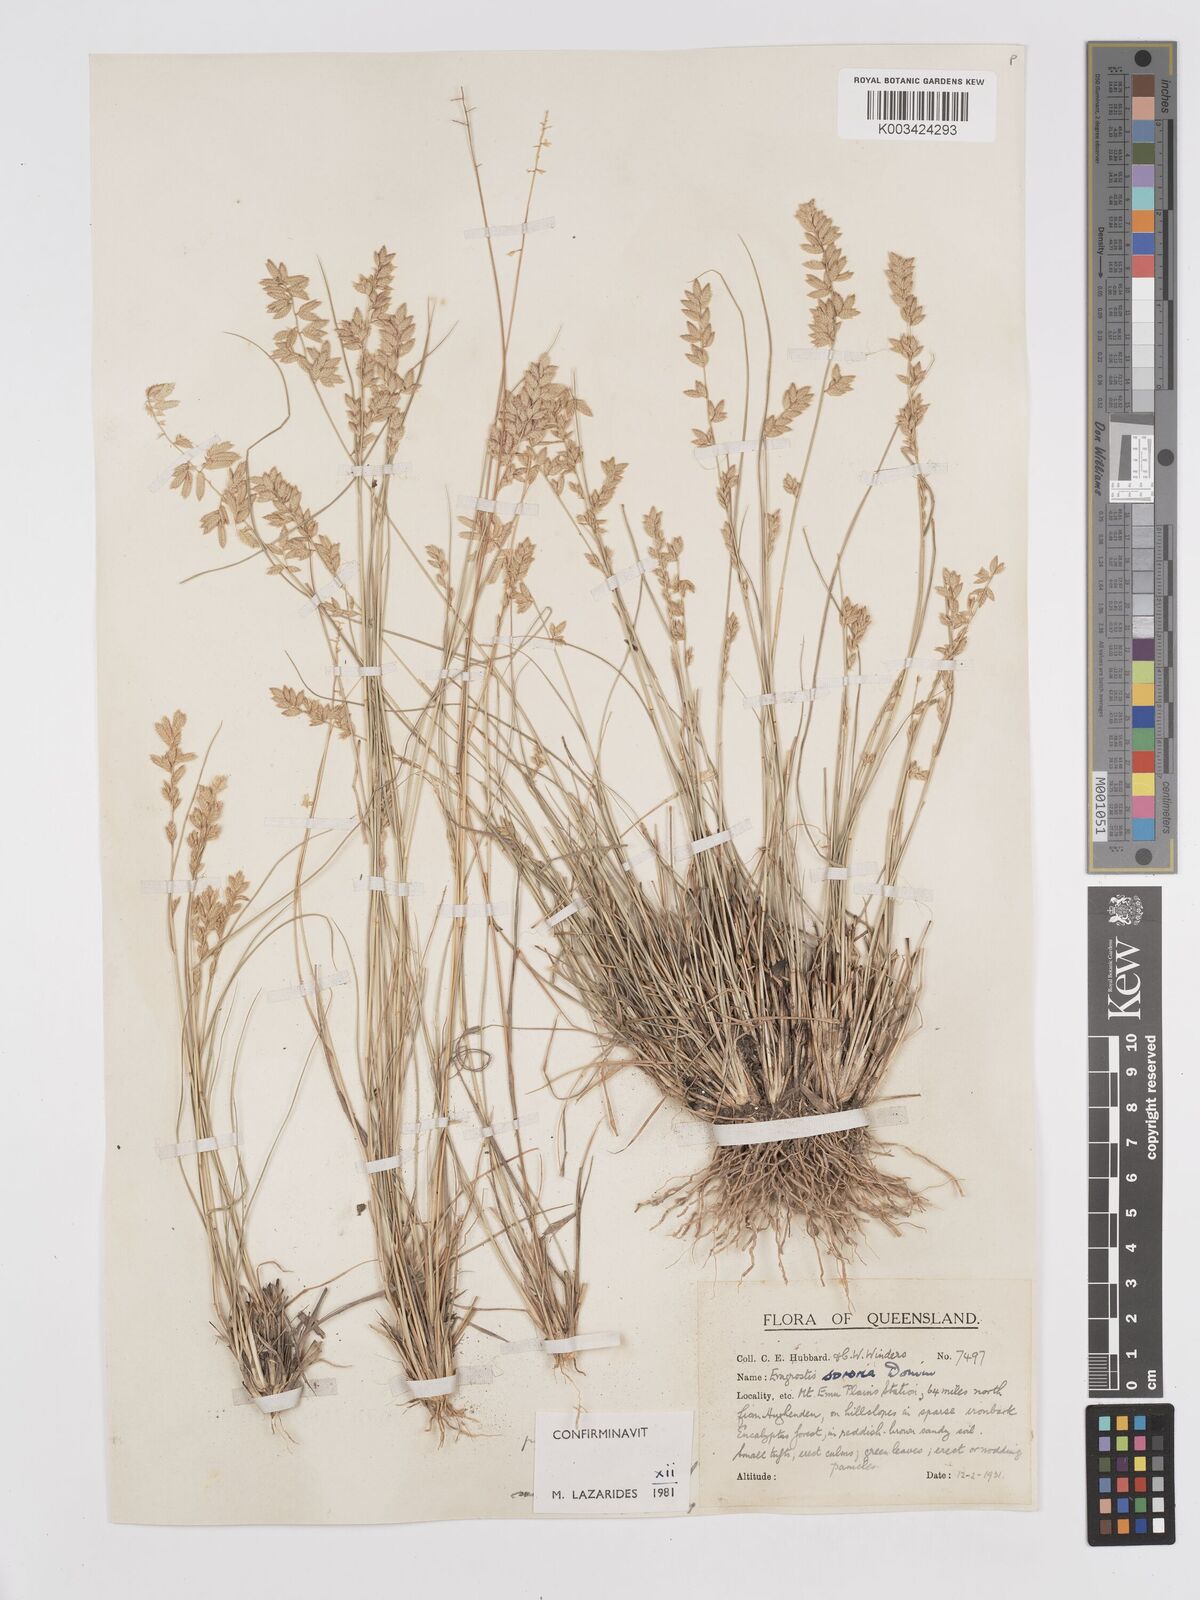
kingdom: Plantae
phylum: Tracheophyta
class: Liliopsida
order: Poales
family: Poaceae
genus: Eragrostis
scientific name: Eragrostis sororia
